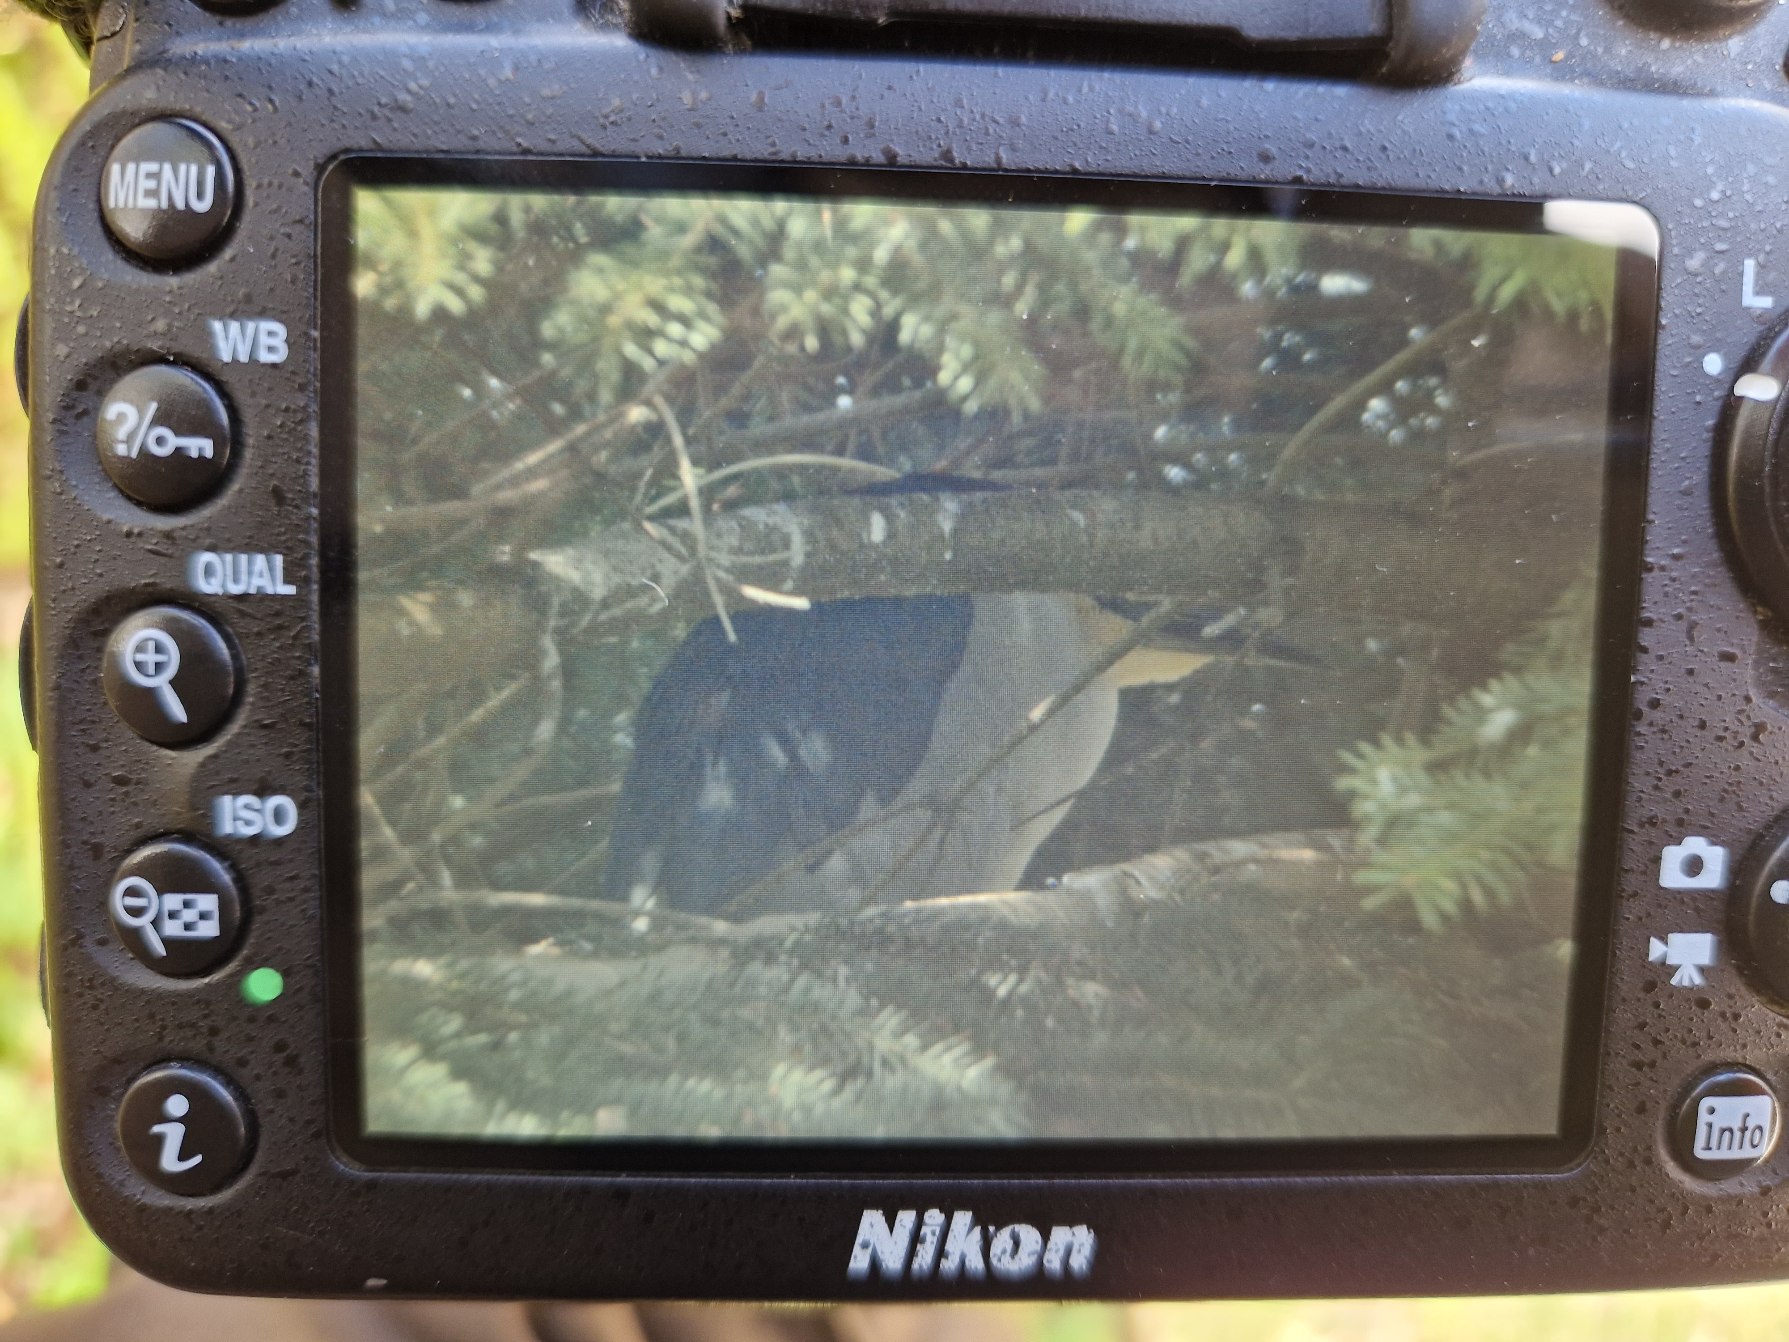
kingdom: Animalia
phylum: Chordata
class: Aves
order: Pelecaniformes
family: Ardeidae
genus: Nycticorax
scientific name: Nycticorax nycticorax
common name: Nathejre
